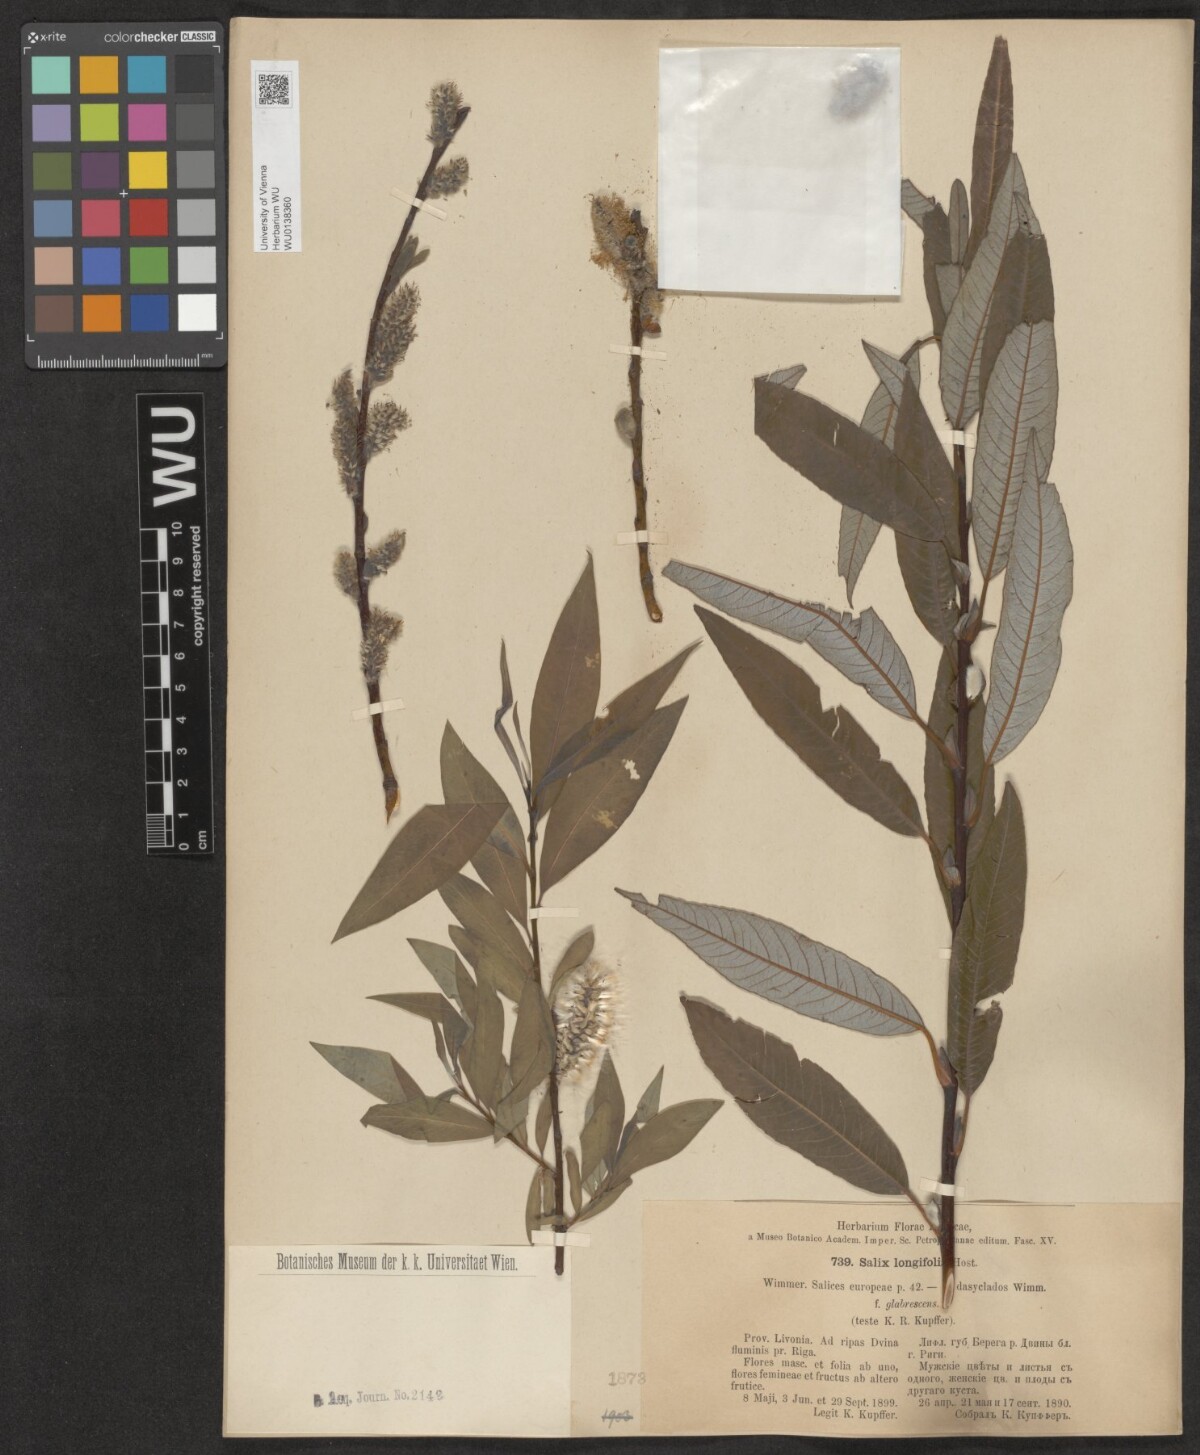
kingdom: Plantae
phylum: Tracheophyta
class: Magnoliopsida
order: Malpighiales
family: Salicaceae
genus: Salix
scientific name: Salix interior
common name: Sandbar willow
